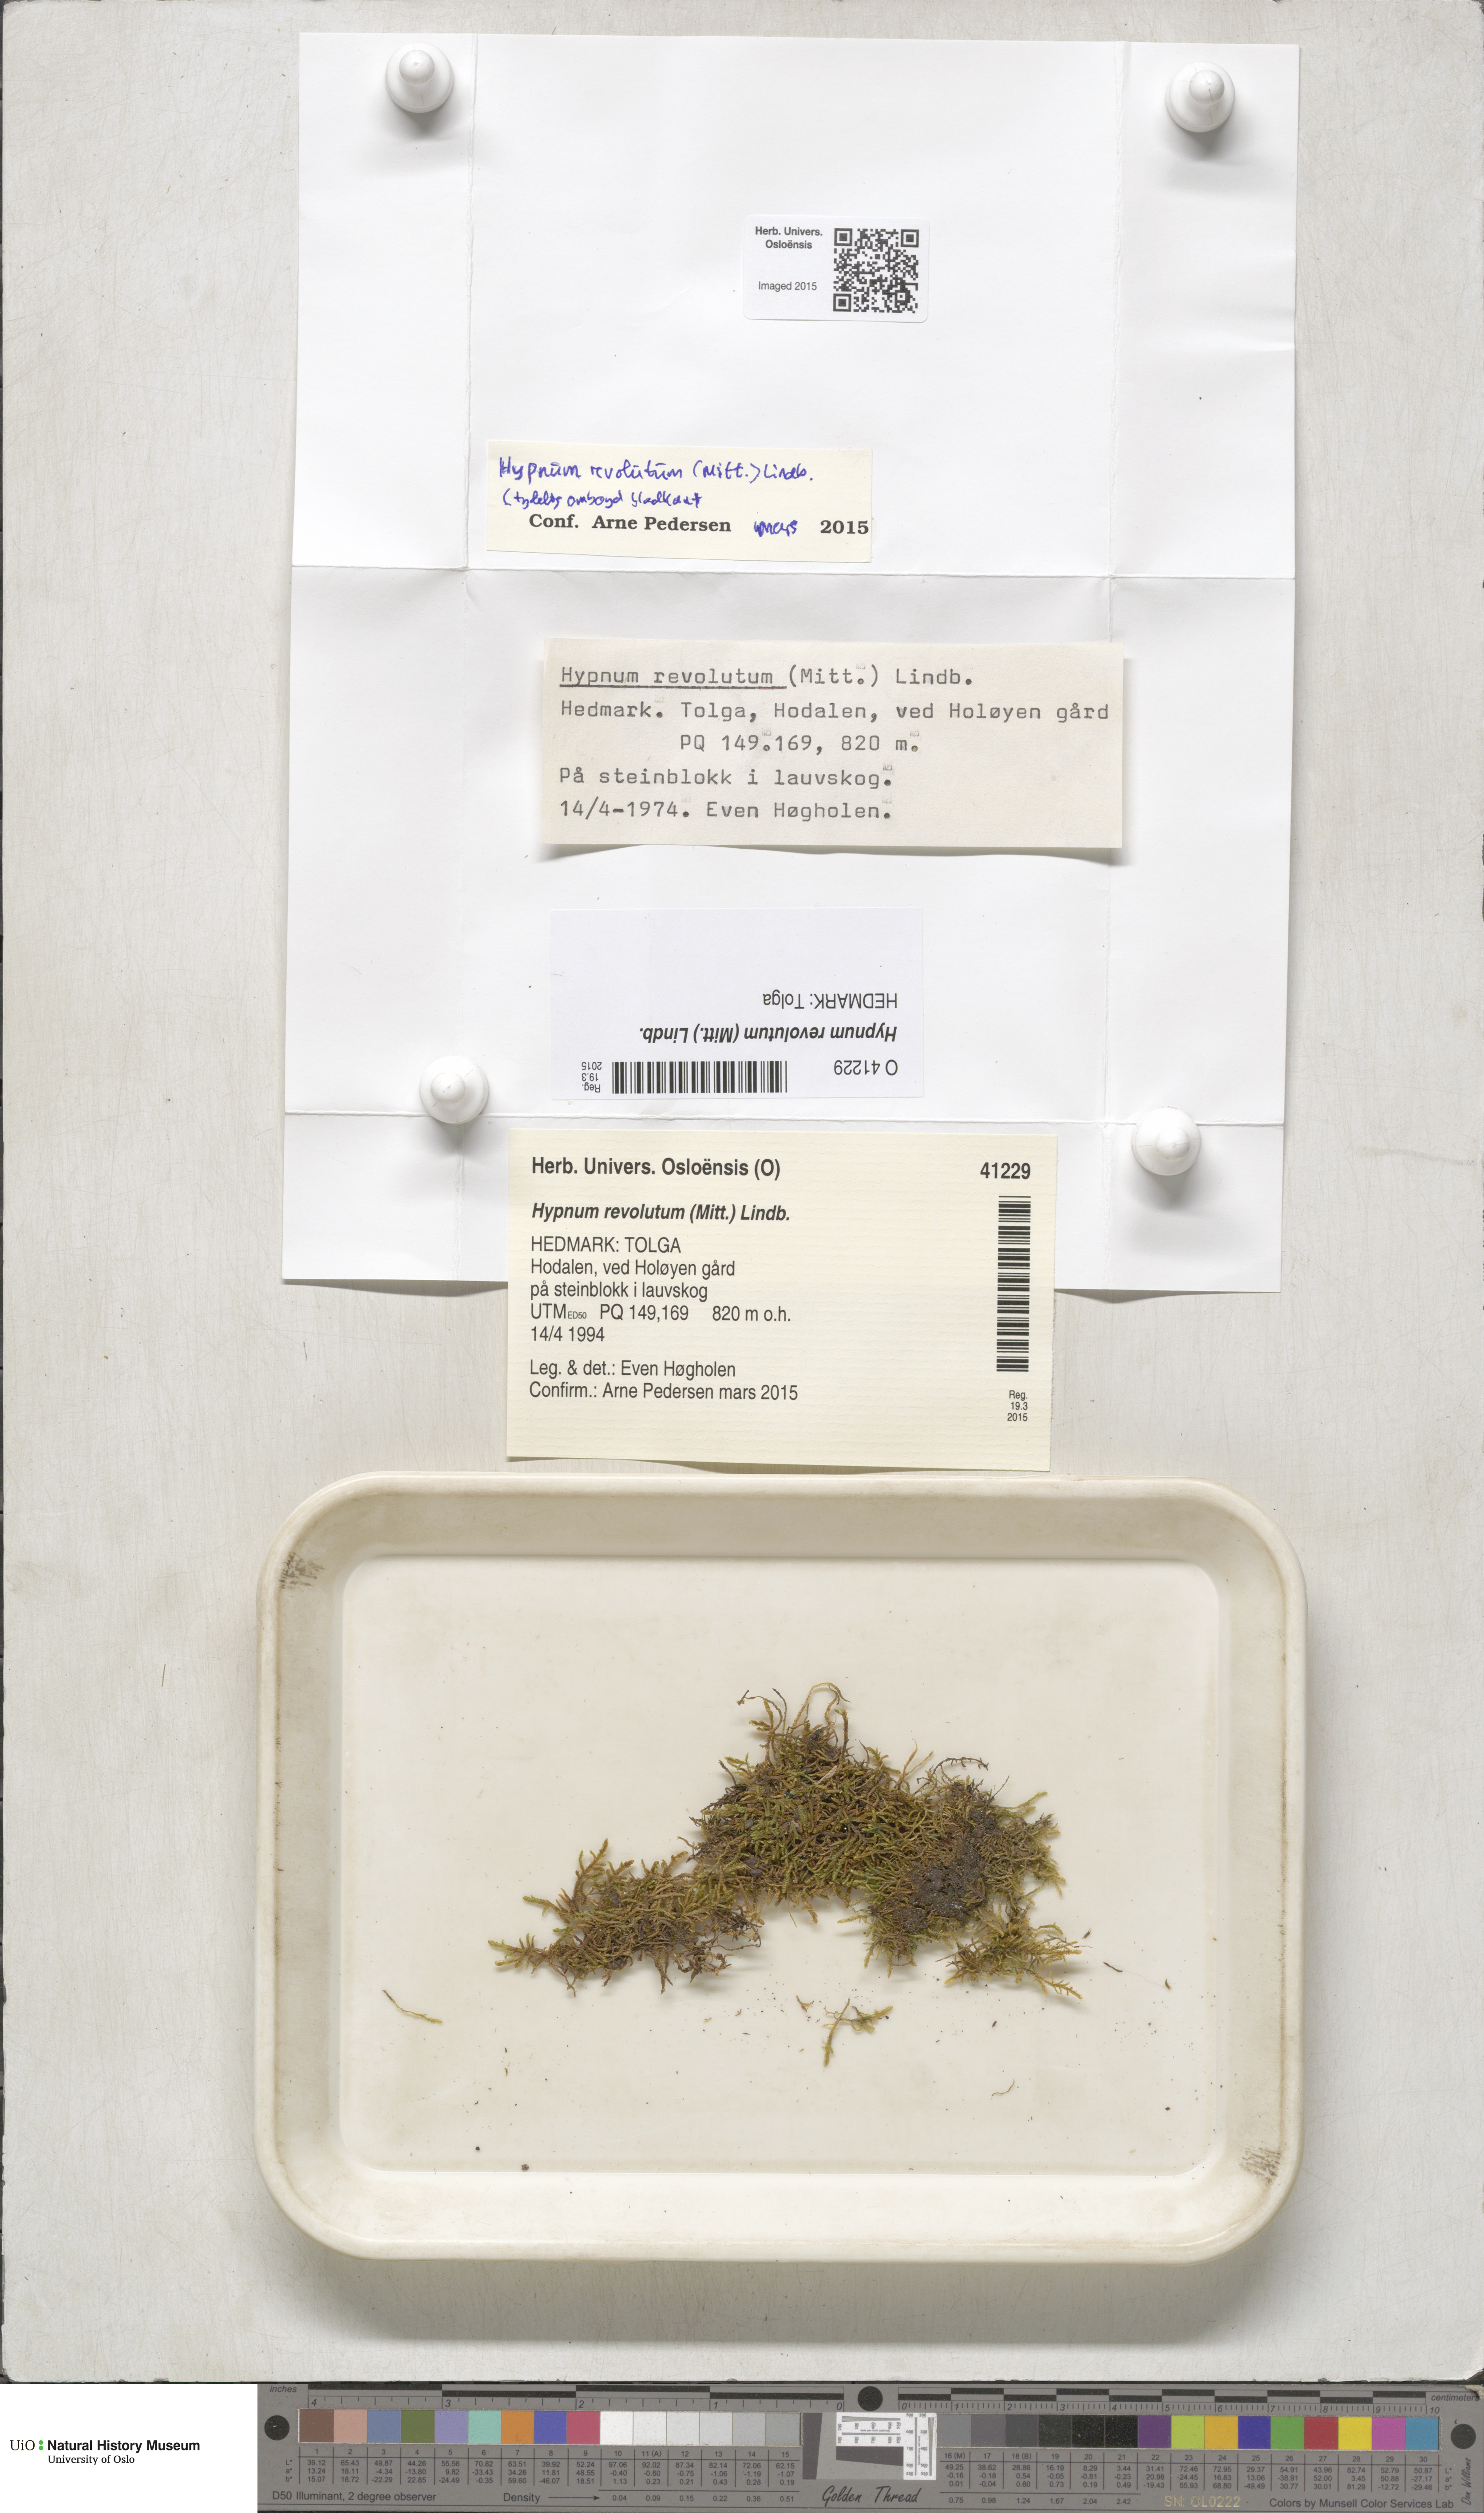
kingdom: Plantae
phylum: Bryophyta
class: Bryopsida
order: Hypnales
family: Pylaisiaceae
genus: Roaldia
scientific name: Roaldia revoluta
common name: Revolute plait-moss
